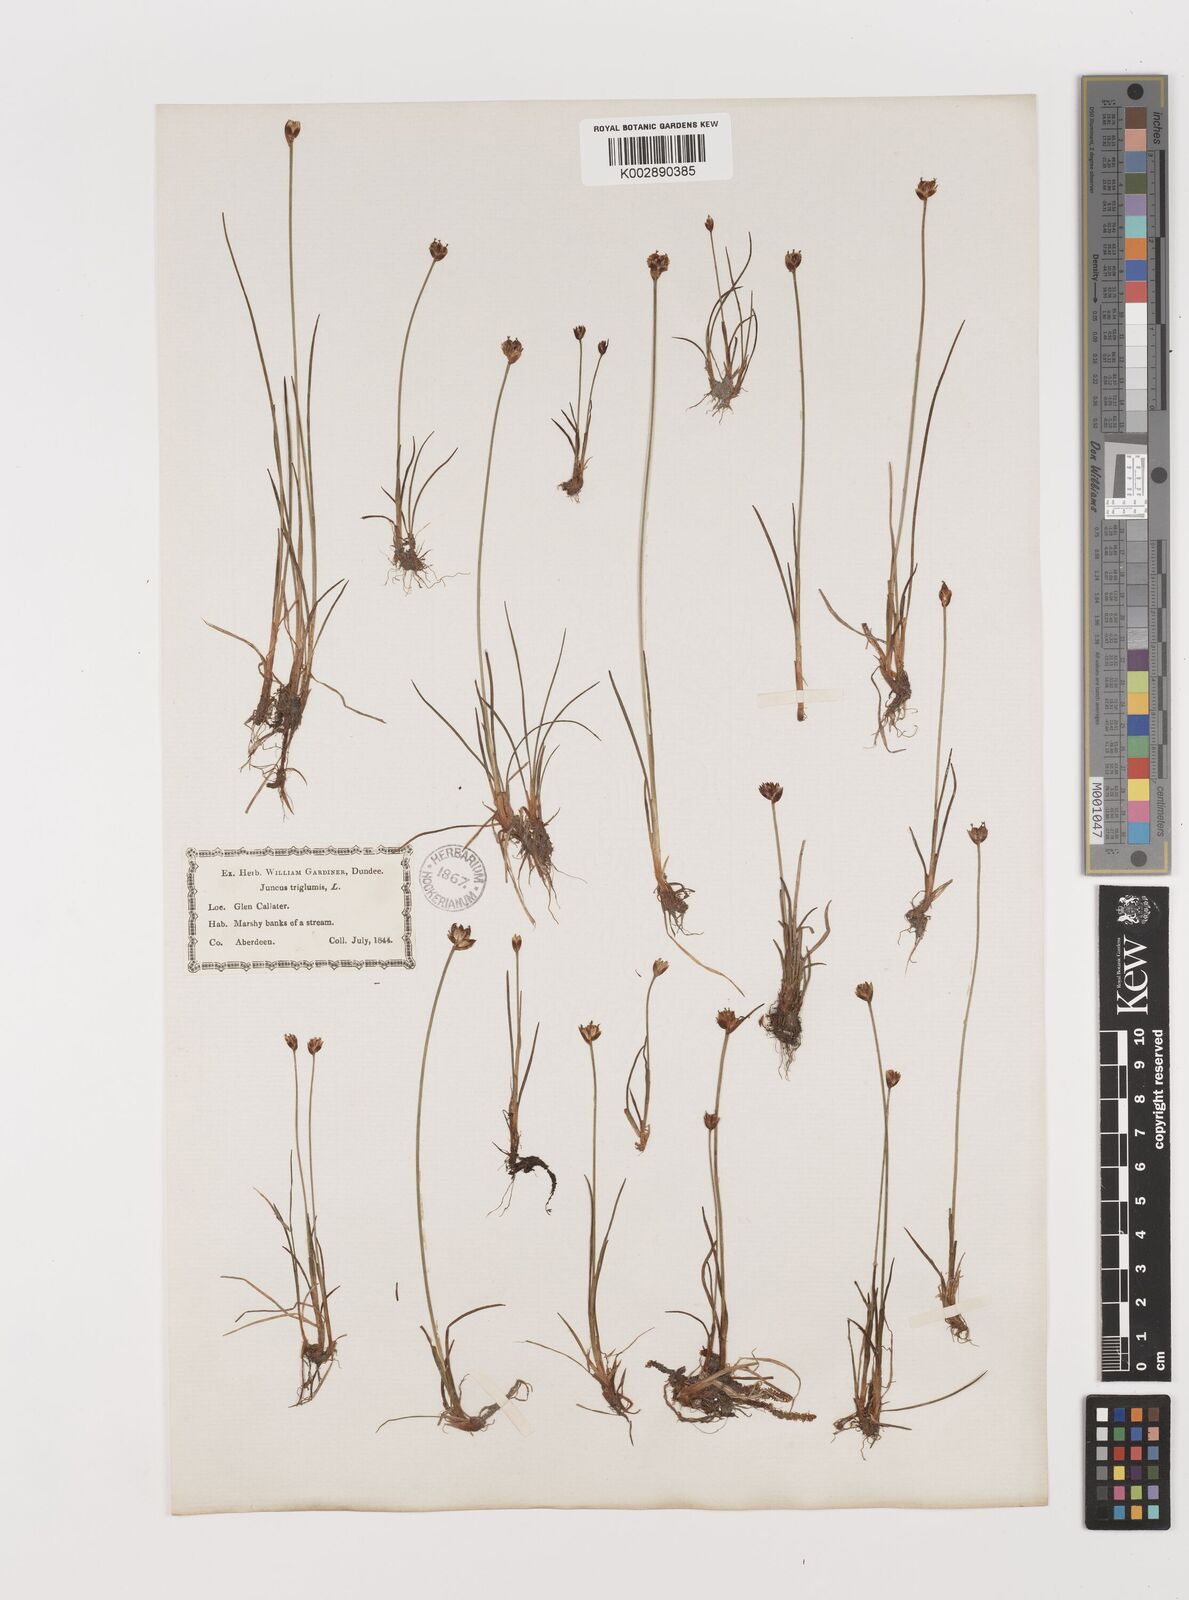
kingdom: Plantae
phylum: Tracheophyta
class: Liliopsida
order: Poales
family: Juncaceae
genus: Juncus
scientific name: Juncus triglumis
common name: Three-flowered rush
